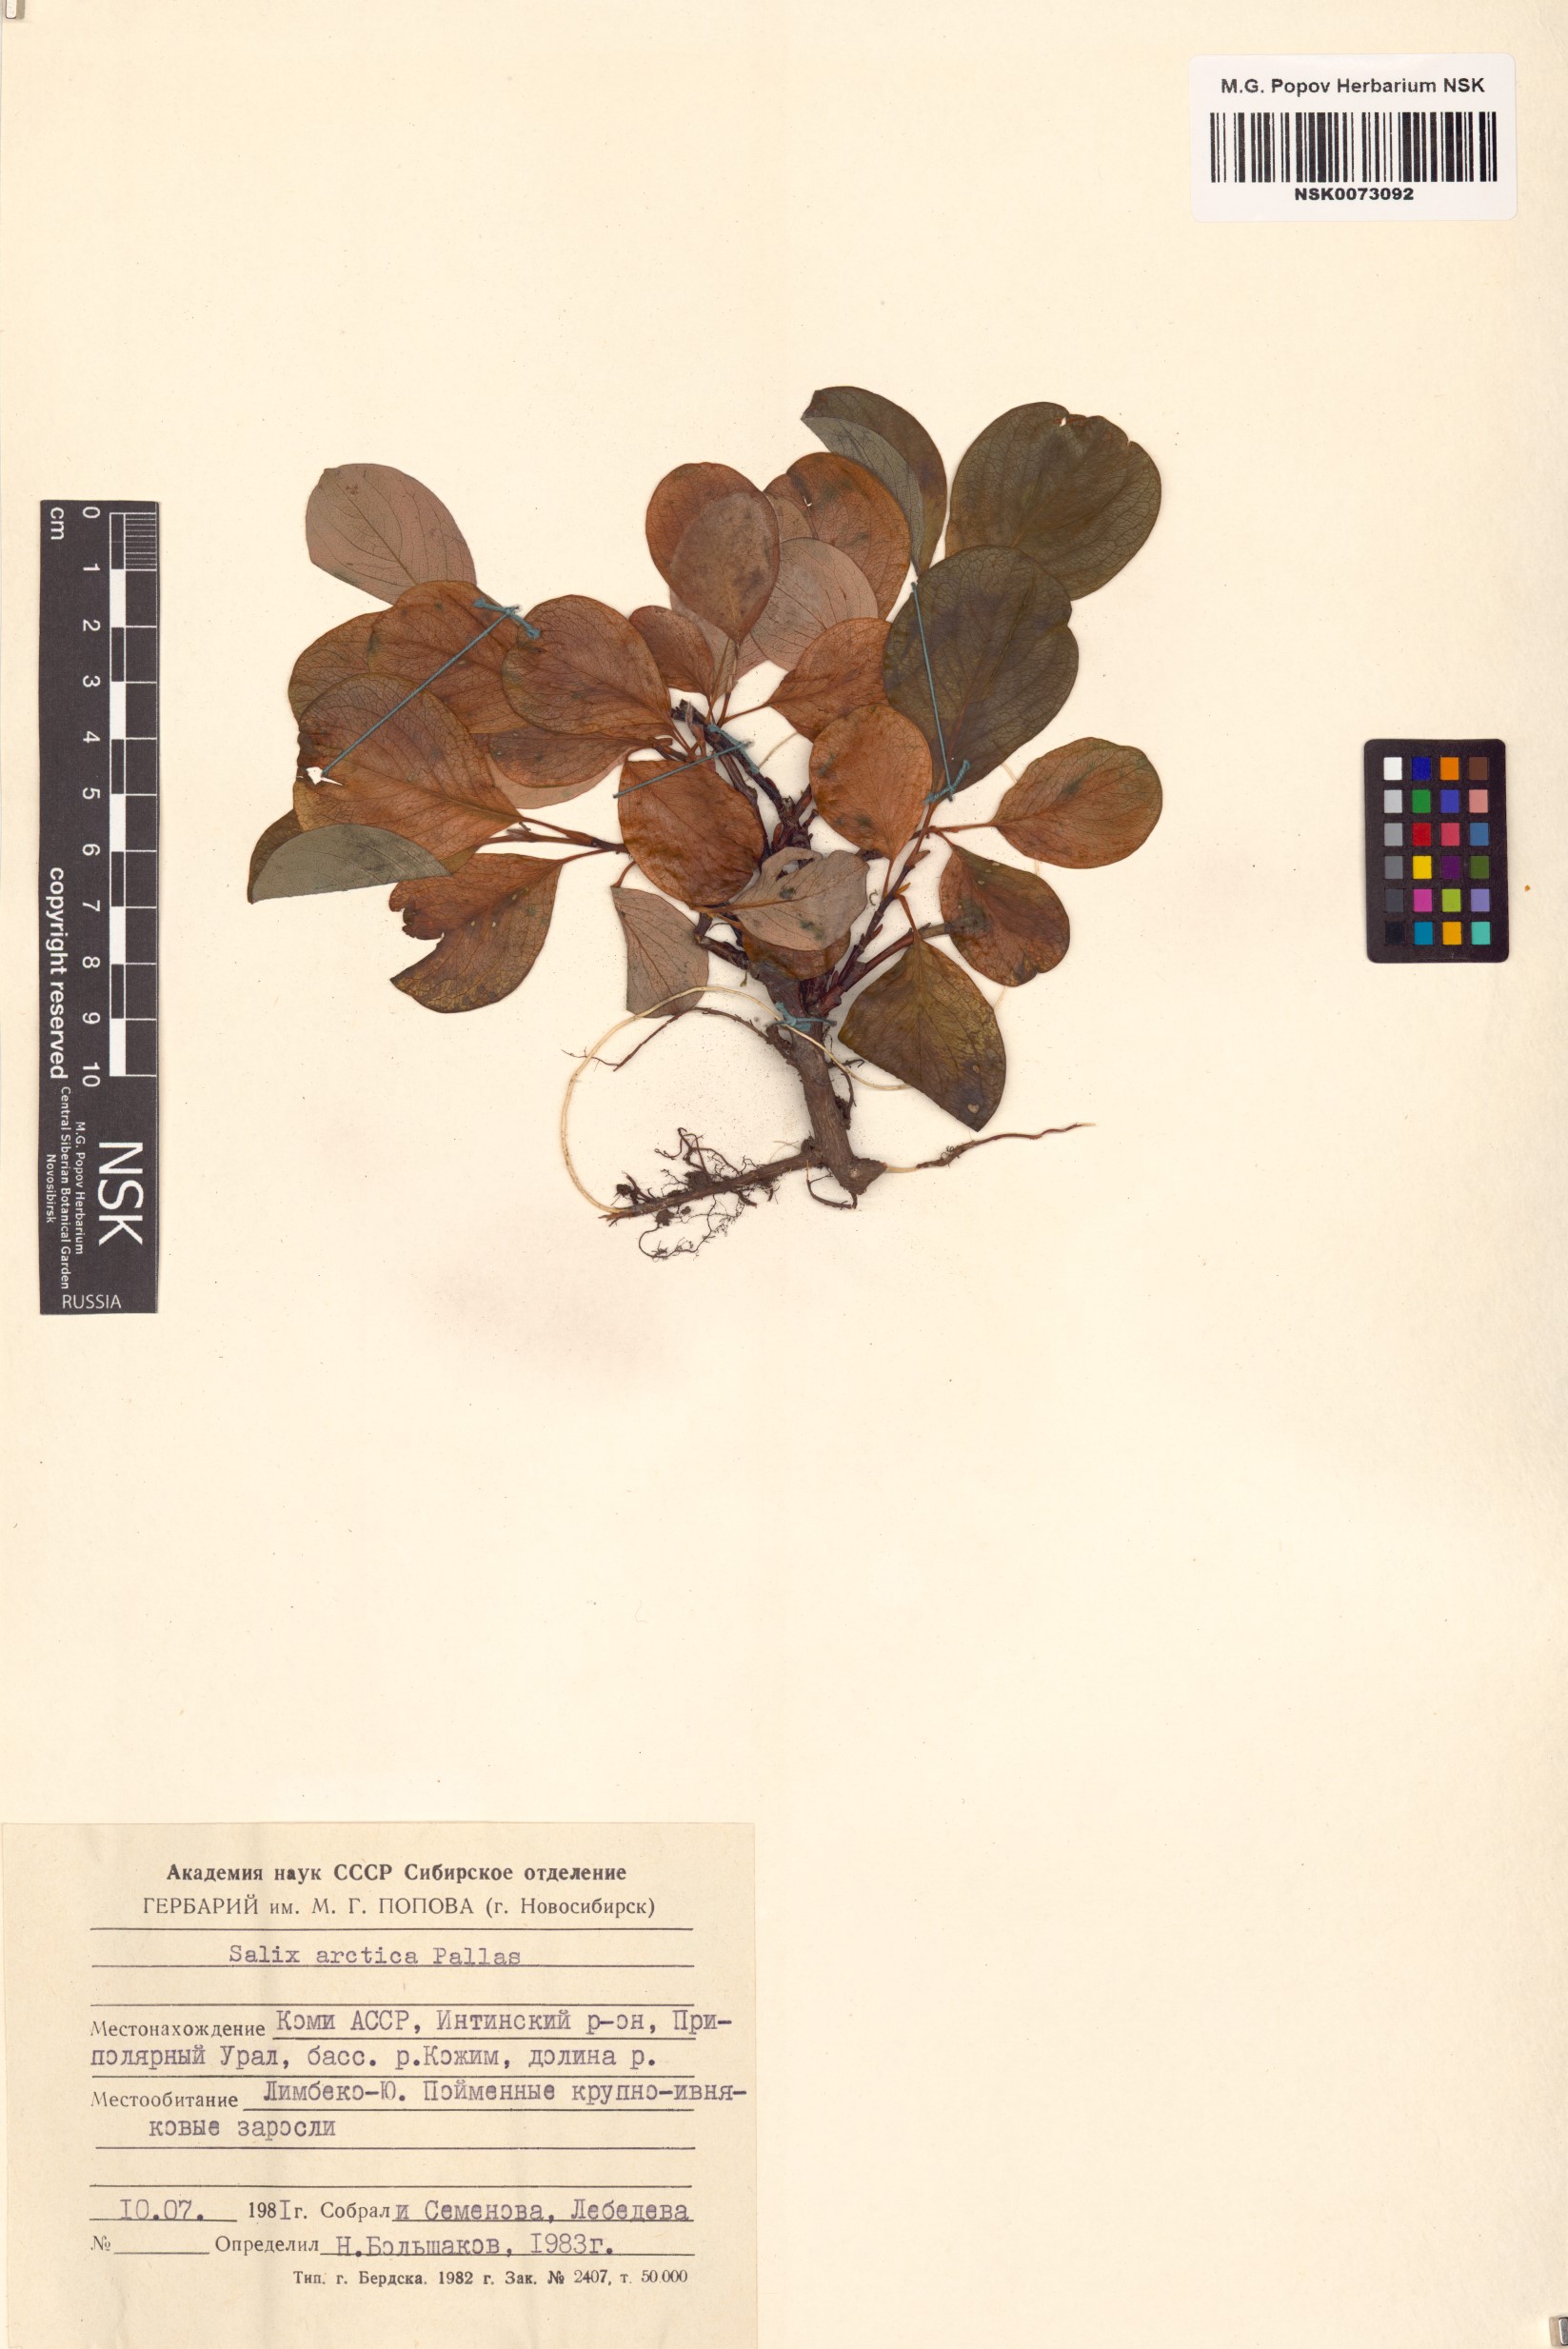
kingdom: Plantae
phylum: Tracheophyta
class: Magnoliopsida
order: Malpighiales
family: Salicaceae
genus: Salix
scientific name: Salix arctica
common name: Arctic willow
